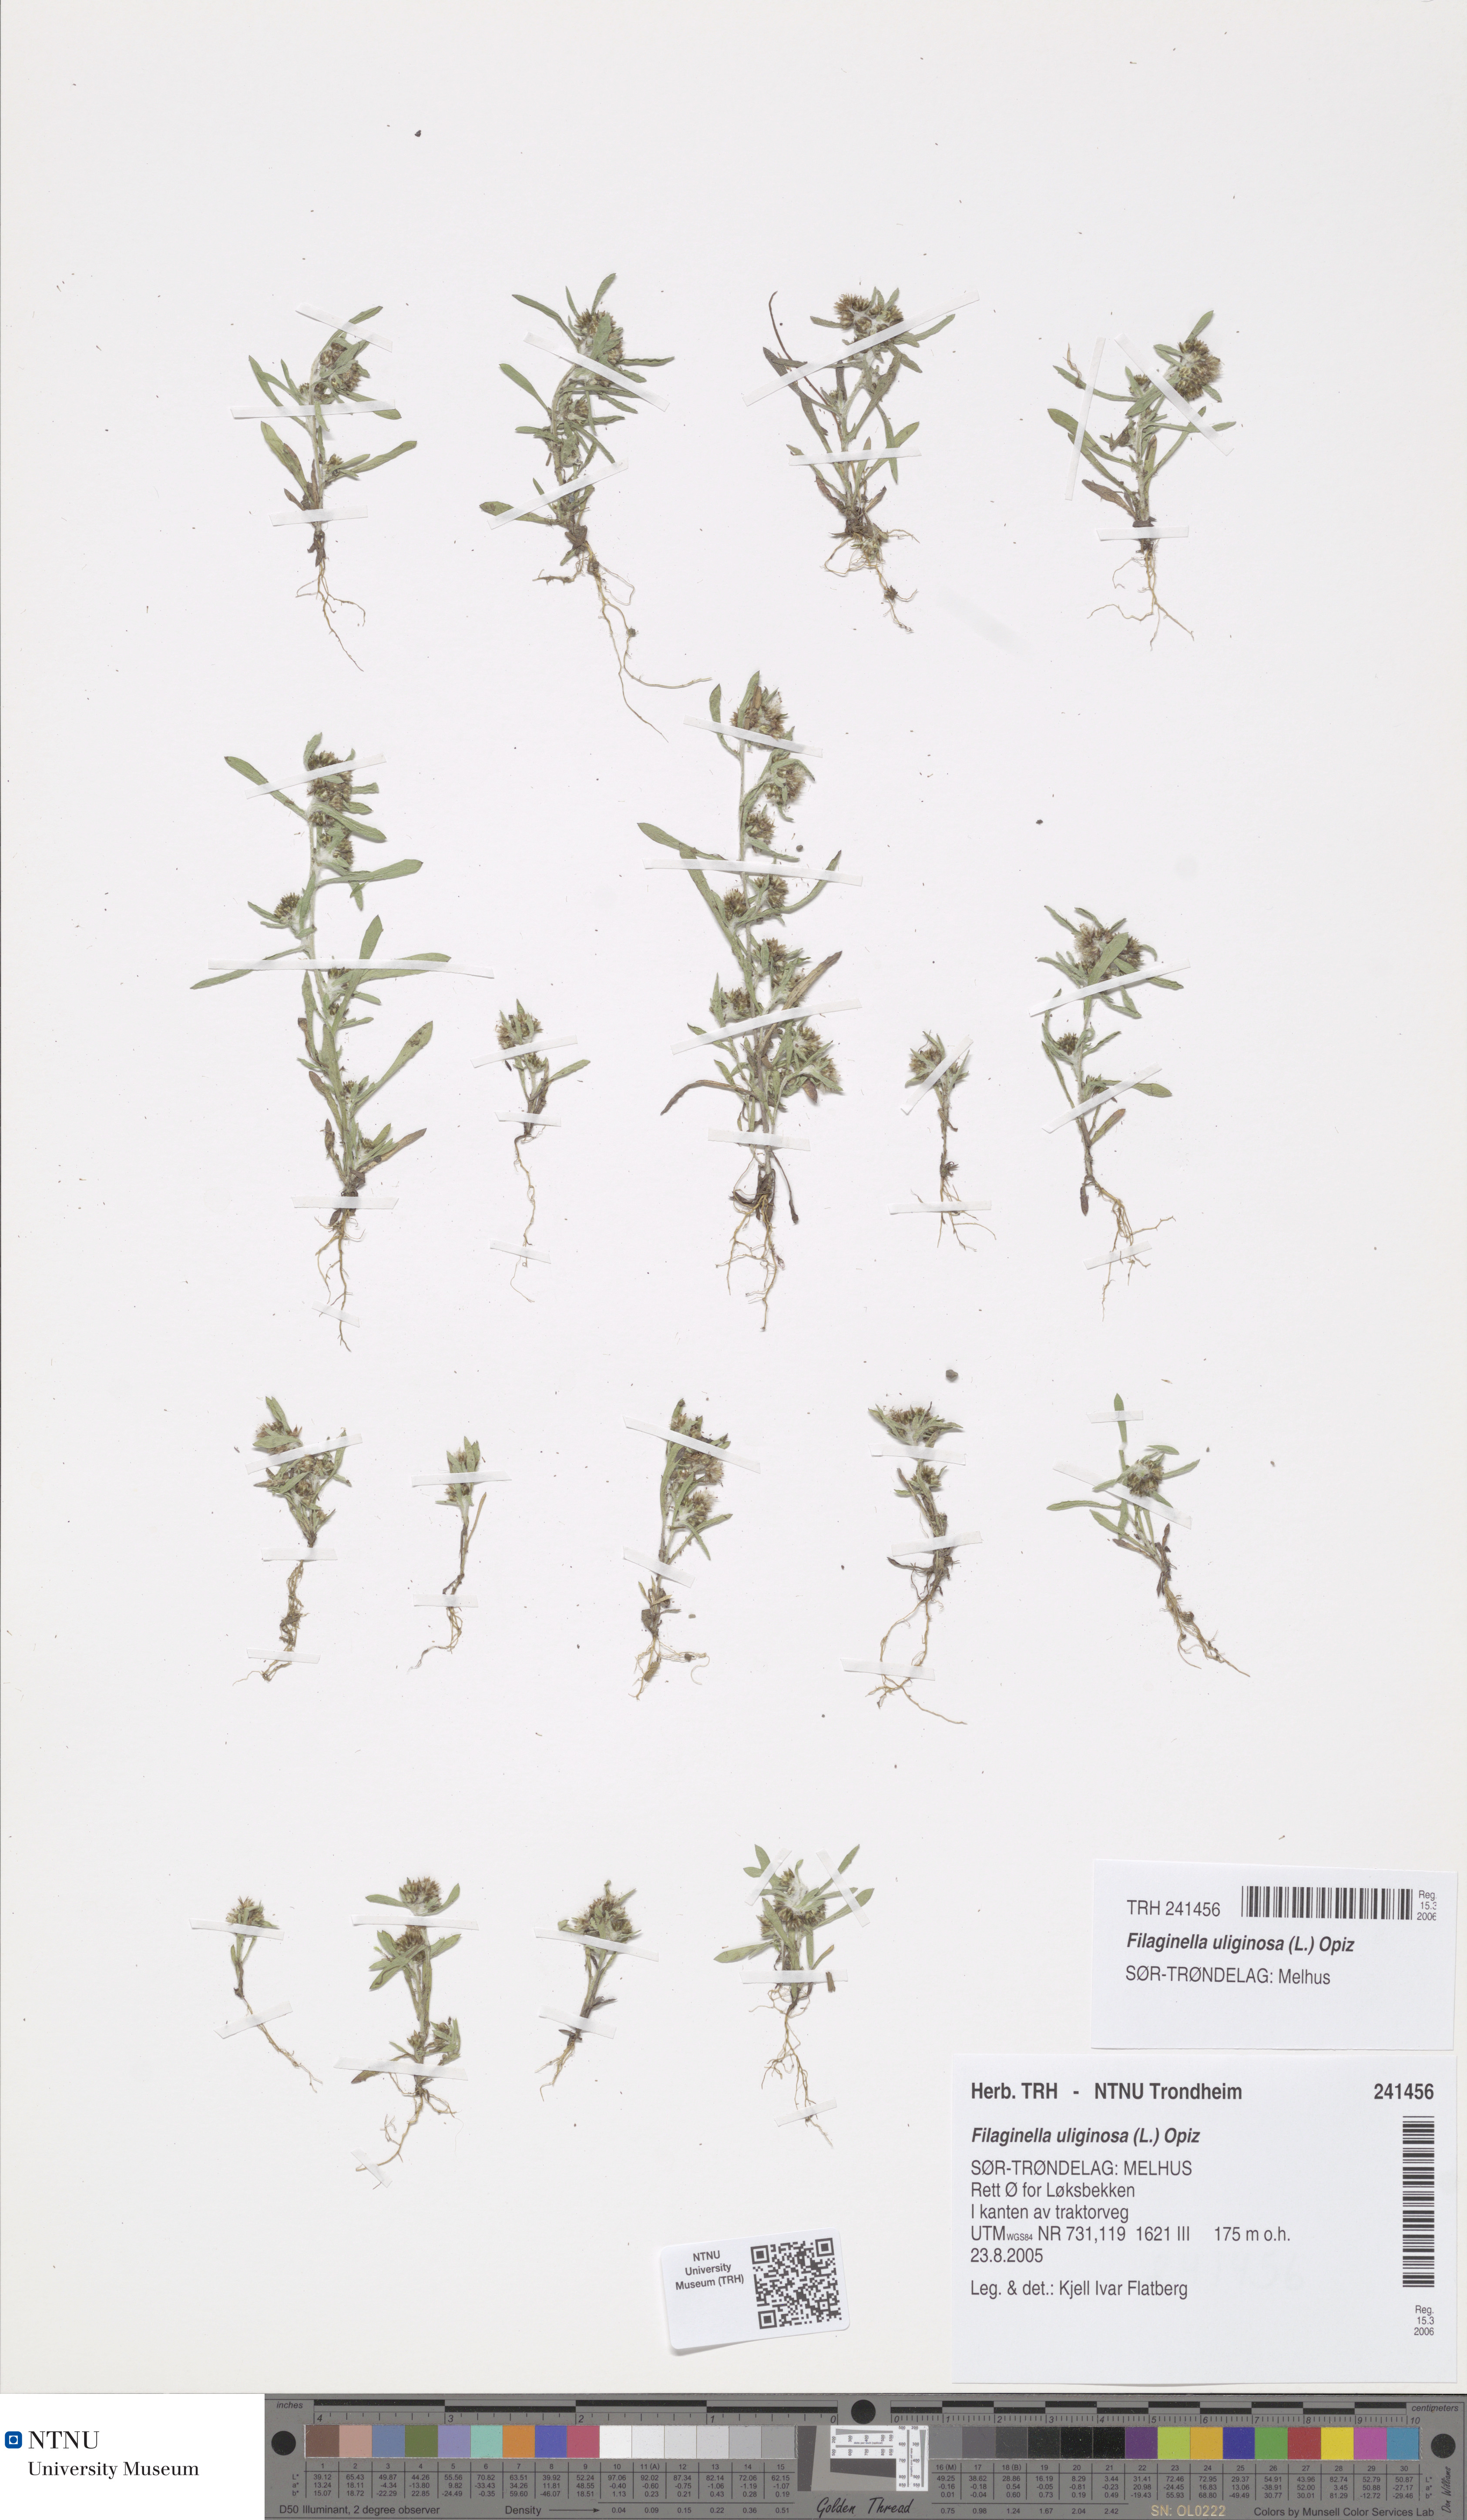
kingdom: Plantae
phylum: Tracheophyta
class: Magnoliopsida
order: Asterales
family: Asteraceae
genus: Gnaphalium
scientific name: Gnaphalium uliginosum
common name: Marsh cudweed
